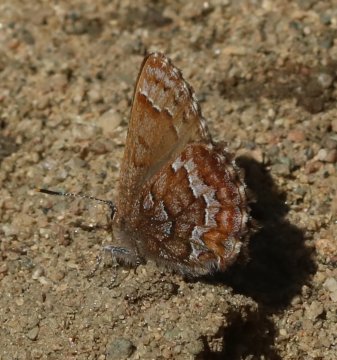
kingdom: Animalia
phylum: Arthropoda
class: Insecta
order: Lepidoptera
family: Lycaenidae
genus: Incisalia
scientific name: Incisalia niphon
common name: Eastern Pine Elfin
